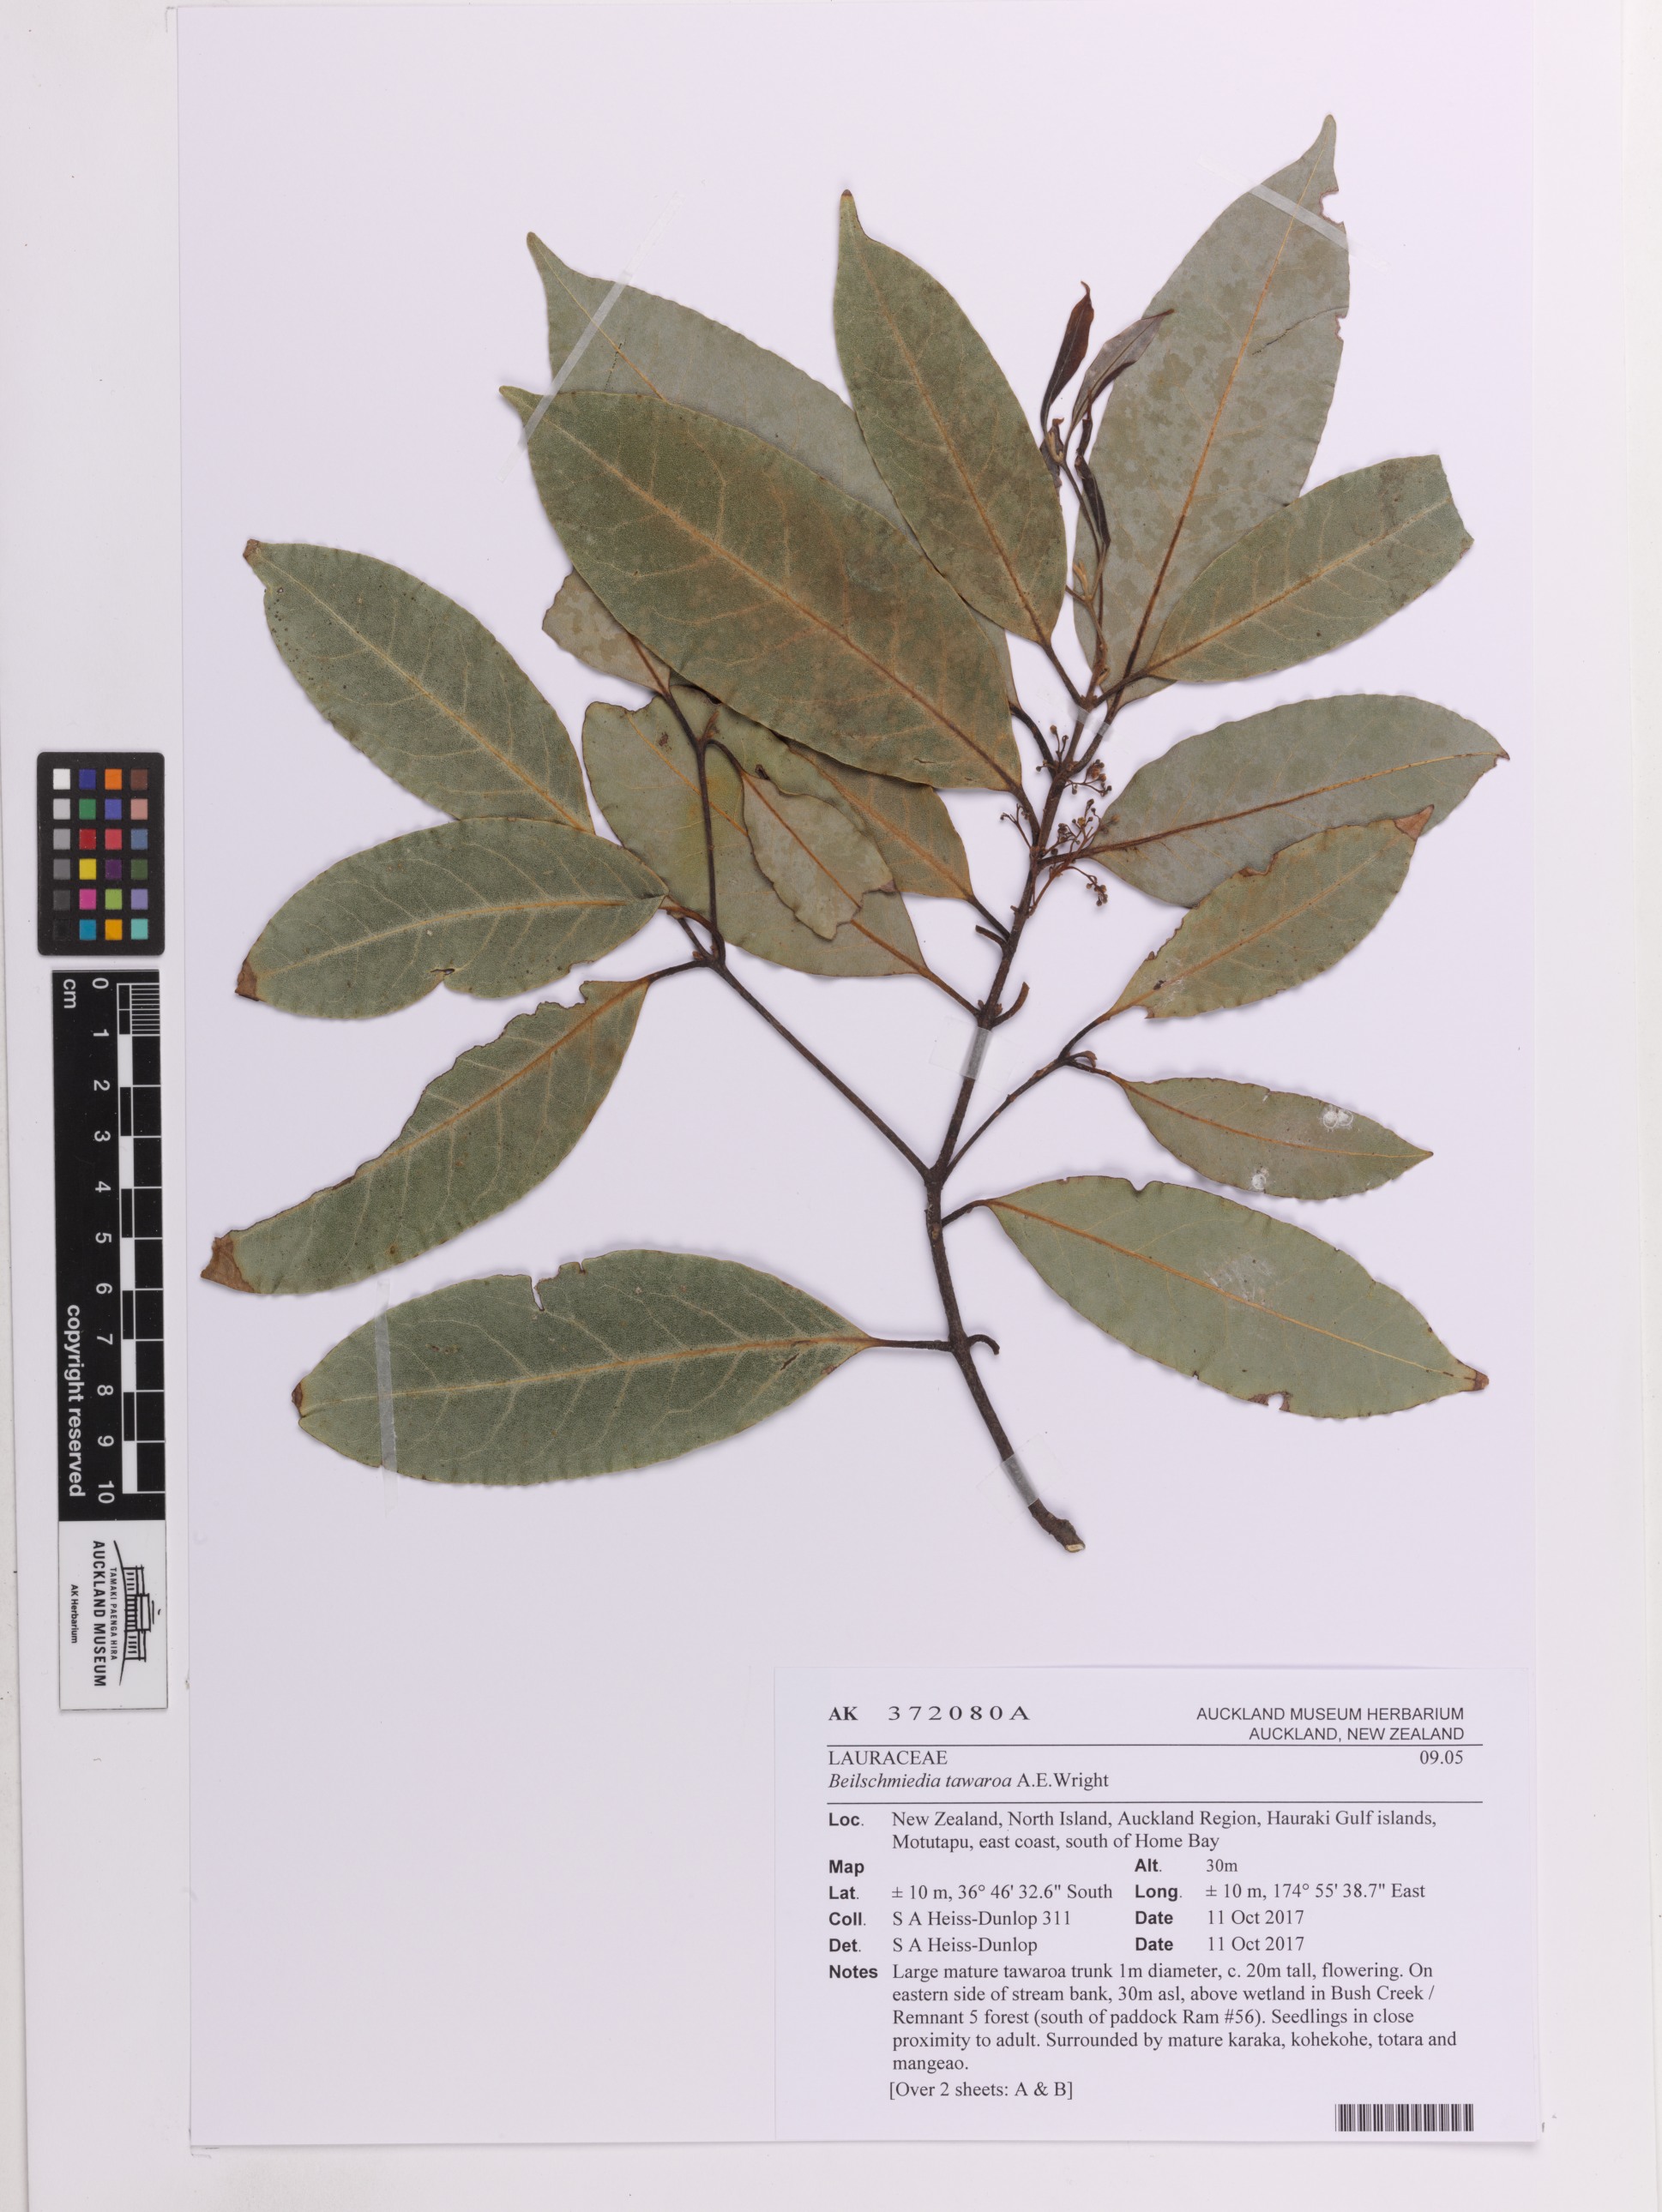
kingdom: Plantae
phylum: Tracheophyta
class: Magnoliopsida
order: Laurales
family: Lauraceae
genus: Beilschmiedia
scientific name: Beilschmiedia tawaroa
